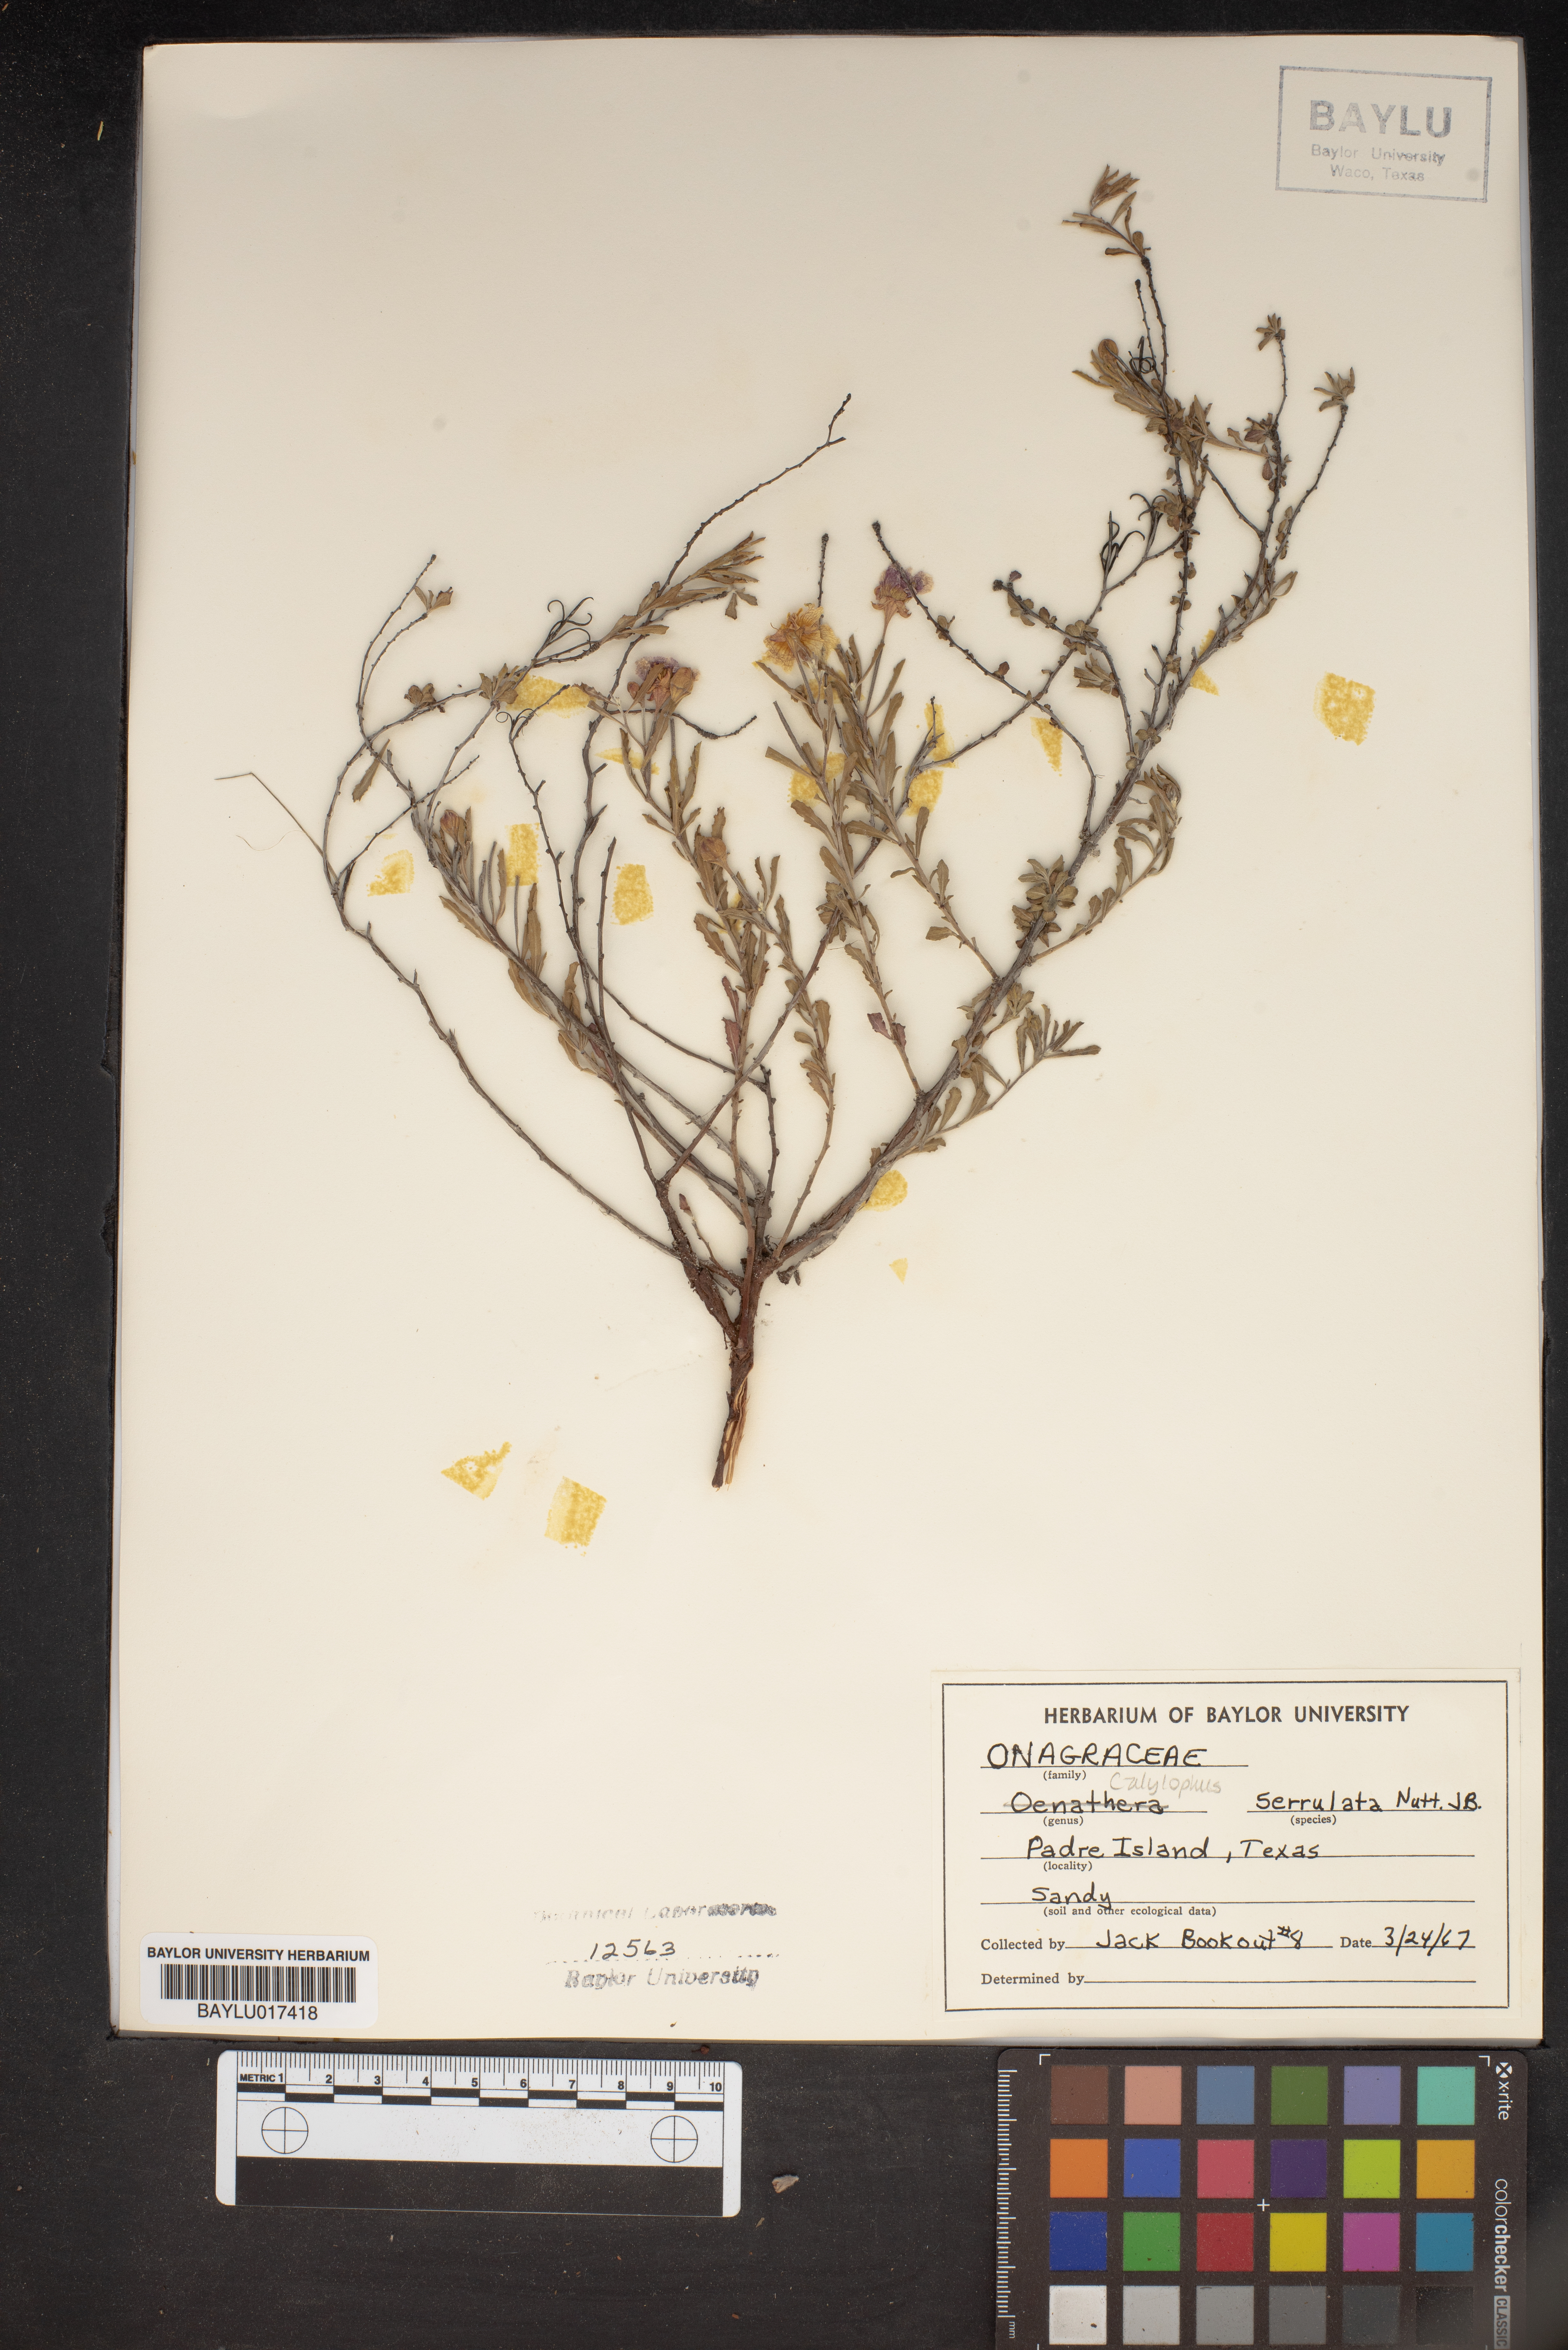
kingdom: Plantae
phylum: Tracheophyta
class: Magnoliopsida
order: Myrtales
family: Onagraceae
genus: Oenothera
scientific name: Oenothera serrulata
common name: Half-shrub calylophus
